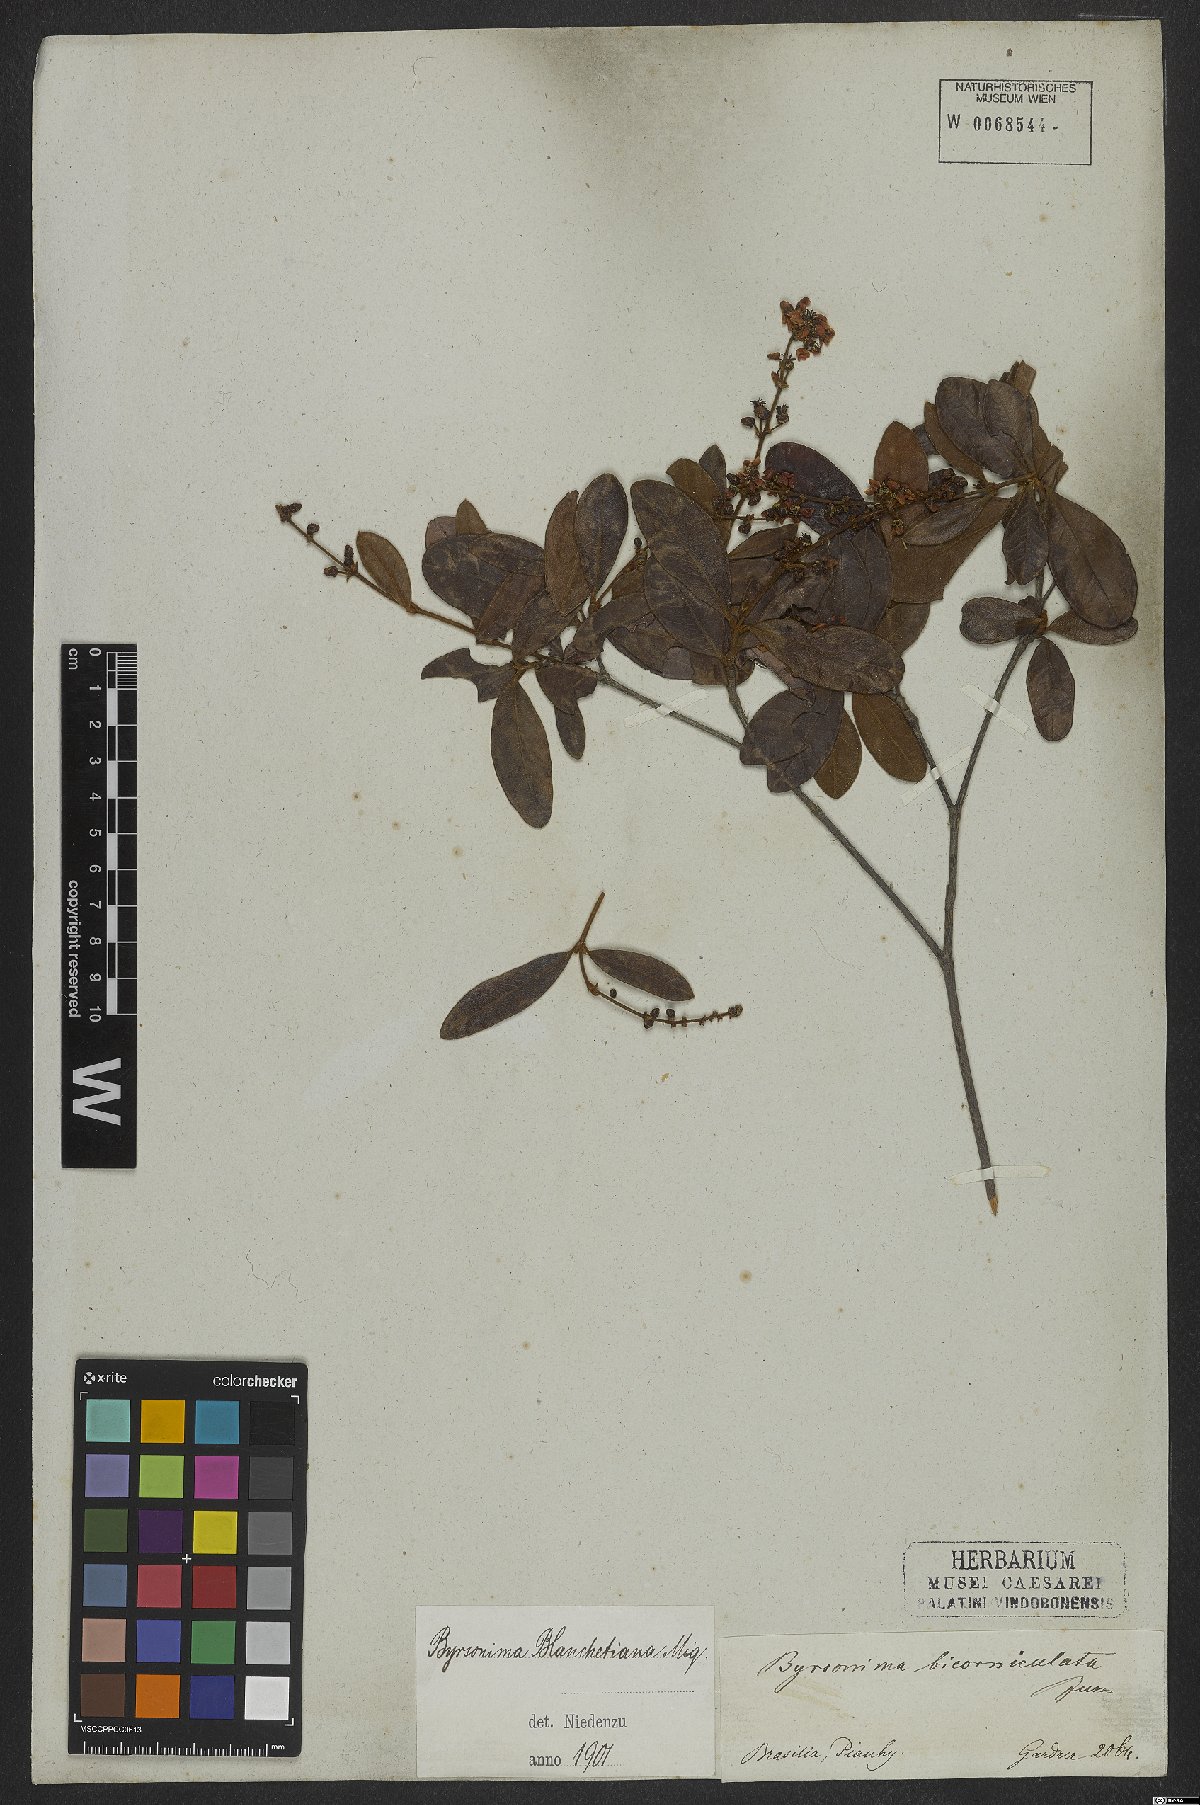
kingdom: Plantae
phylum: Tracheophyta
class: Magnoliopsida
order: Malpighiales
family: Malpighiaceae
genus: Byrsonima
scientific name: Byrsonima bicorniculata
